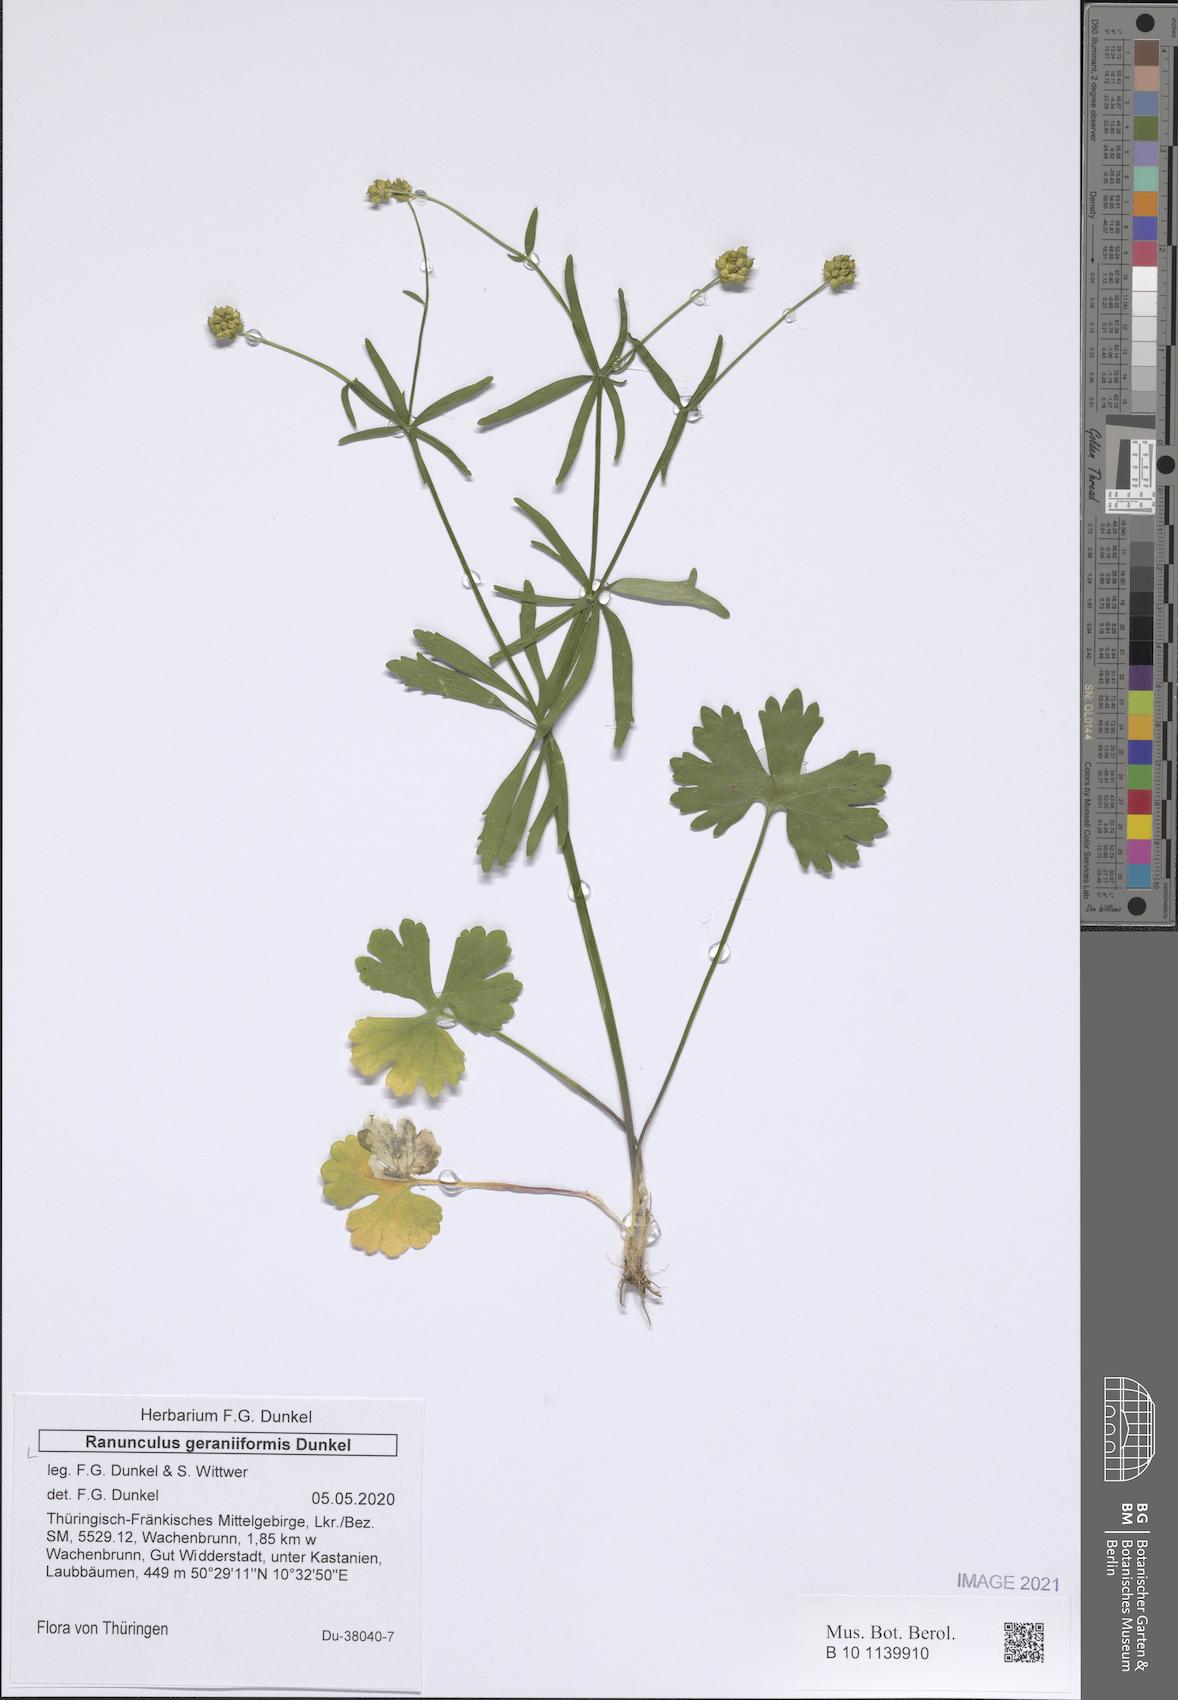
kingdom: Plantae
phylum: Tracheophyta
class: Magnoliopsida
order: Ranunculales
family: Ranunculaceae
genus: Ranunculus
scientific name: Ranunculus geraniiformis
